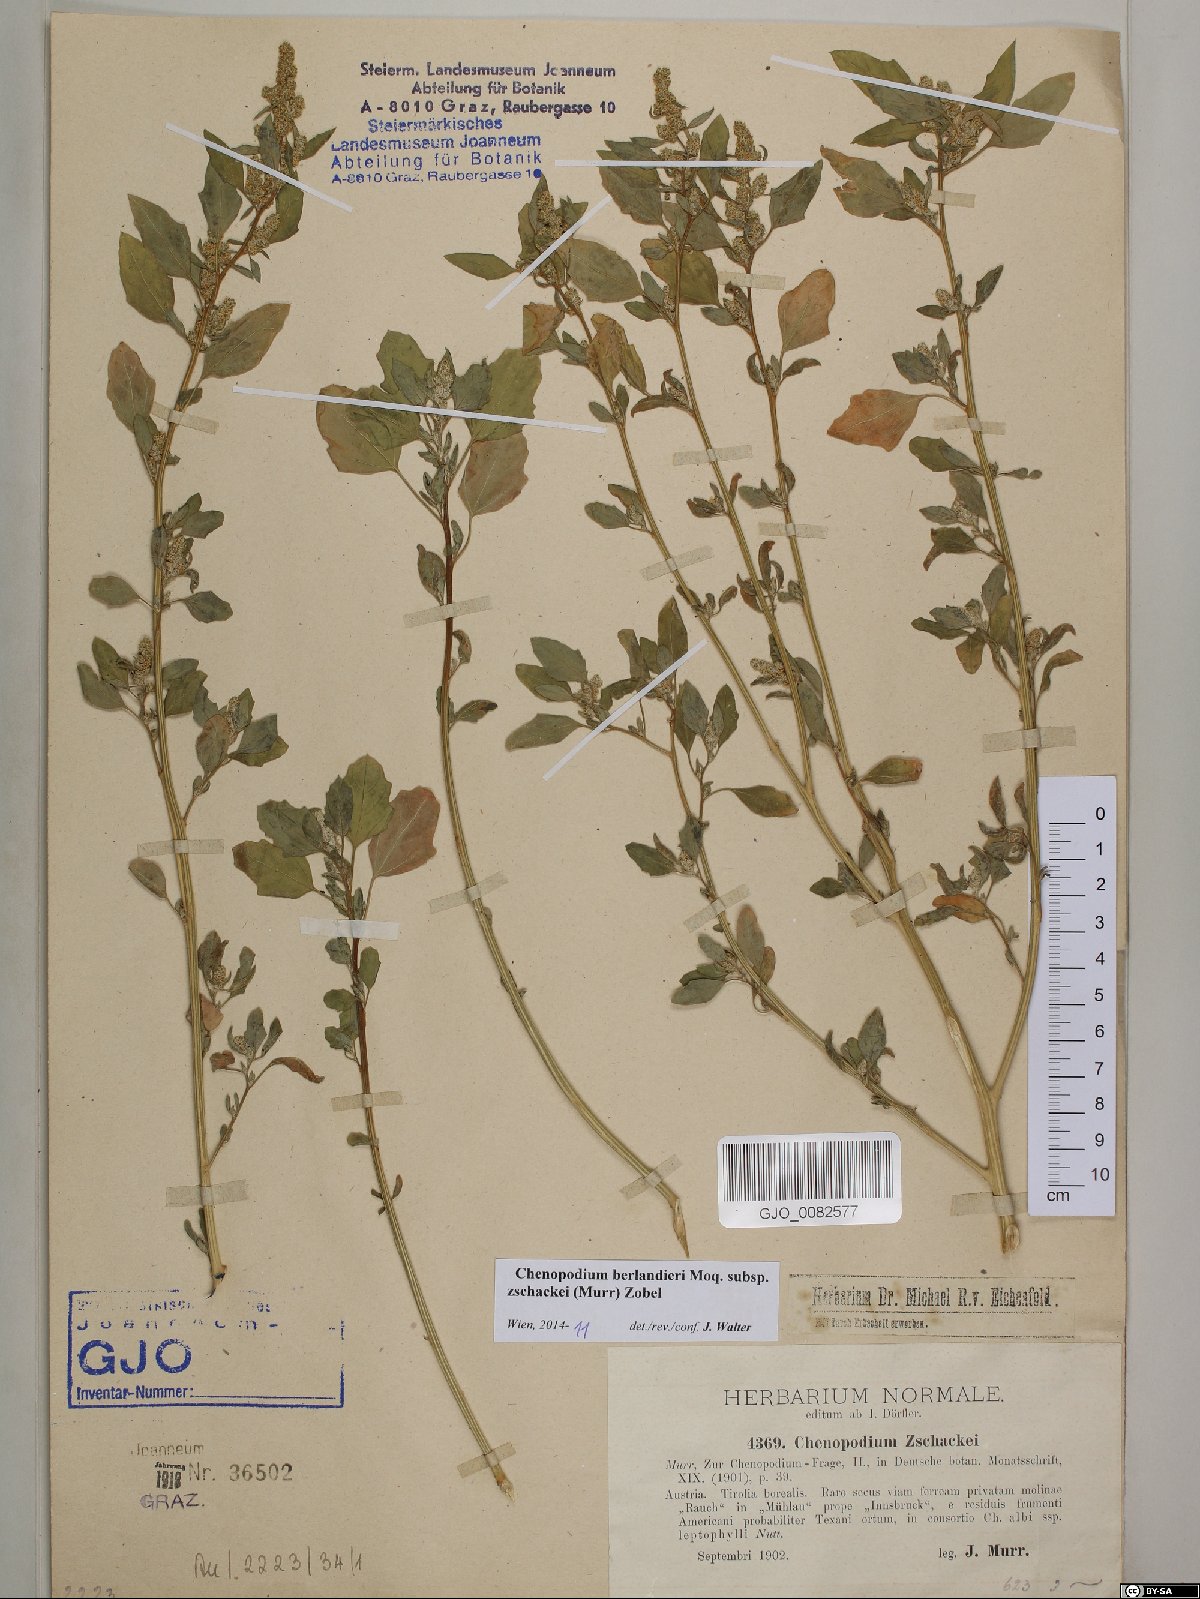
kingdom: Plantae
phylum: Tracheophyta
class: Magnoliopsida
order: Caryophyllales
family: Amaranthaceae
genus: Chenopodium
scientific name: Chenopodium berlandieri
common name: Pit-seed goosefoot
